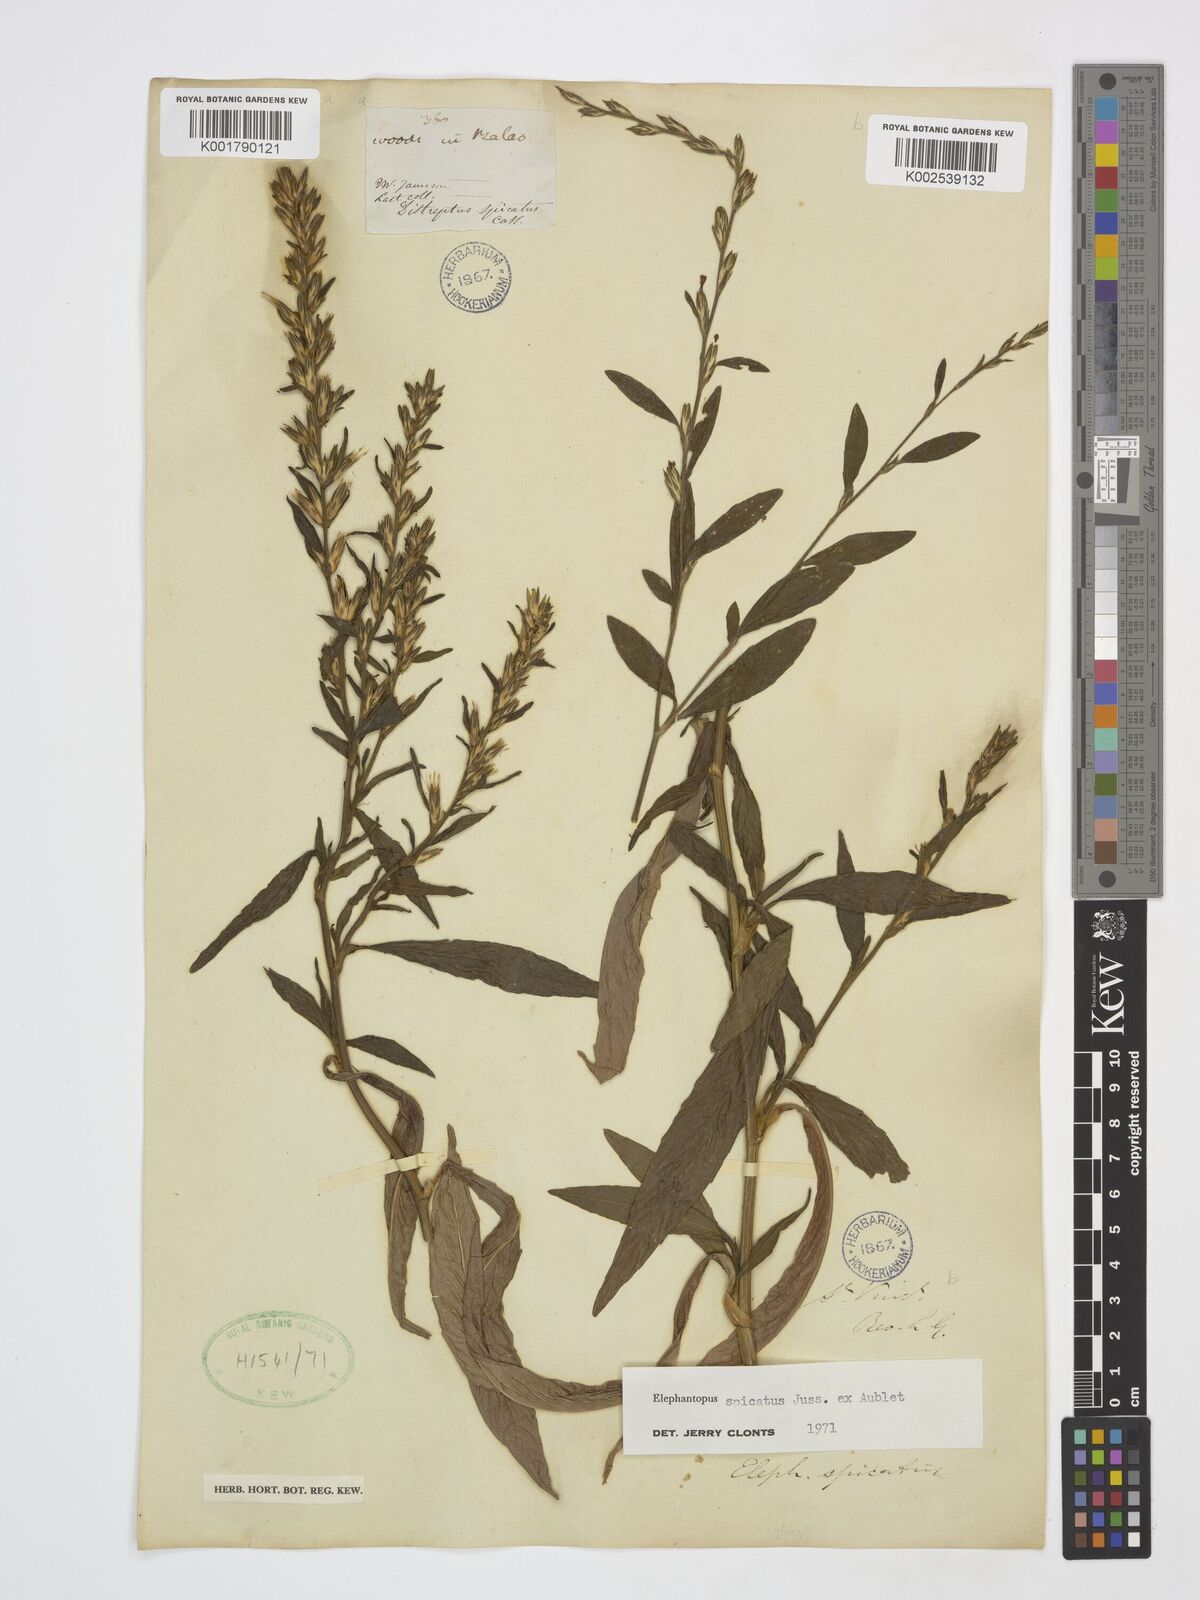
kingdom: Plantae
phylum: Tracheophyta
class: Magnoliopsida
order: Asterales
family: Asteraceae
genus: Pseudelephantopus
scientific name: Pseudelephantopus spicatus
